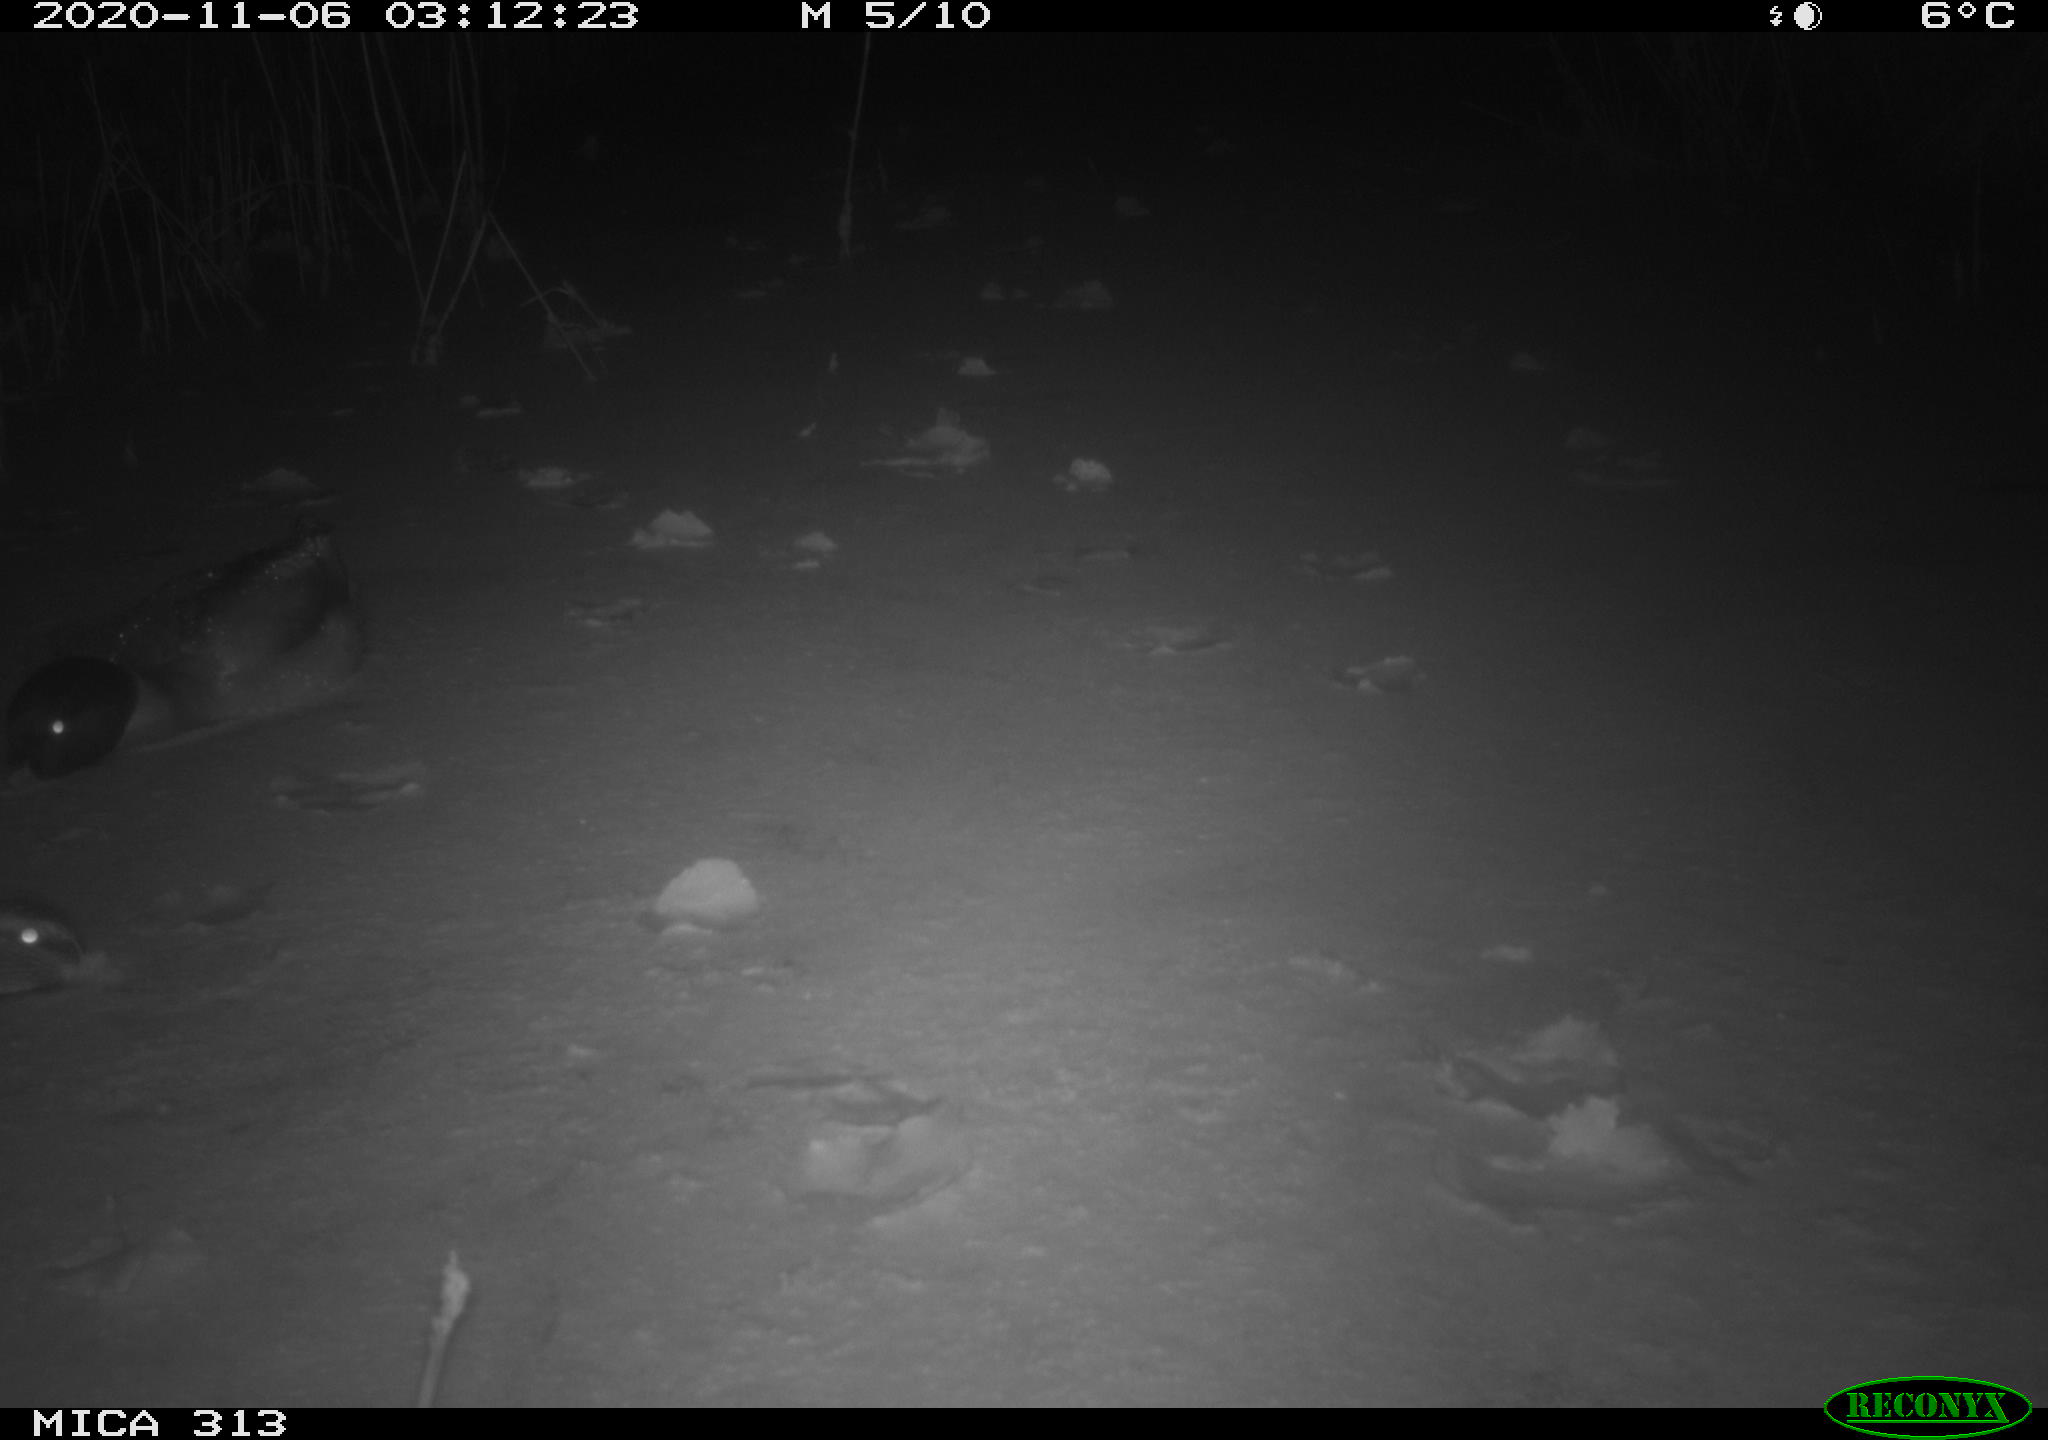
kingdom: Animalia
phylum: Chordata
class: Aves
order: Anseriformes
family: Anatidae
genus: Anas
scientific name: Anas platyrhynchos
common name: Mallard
